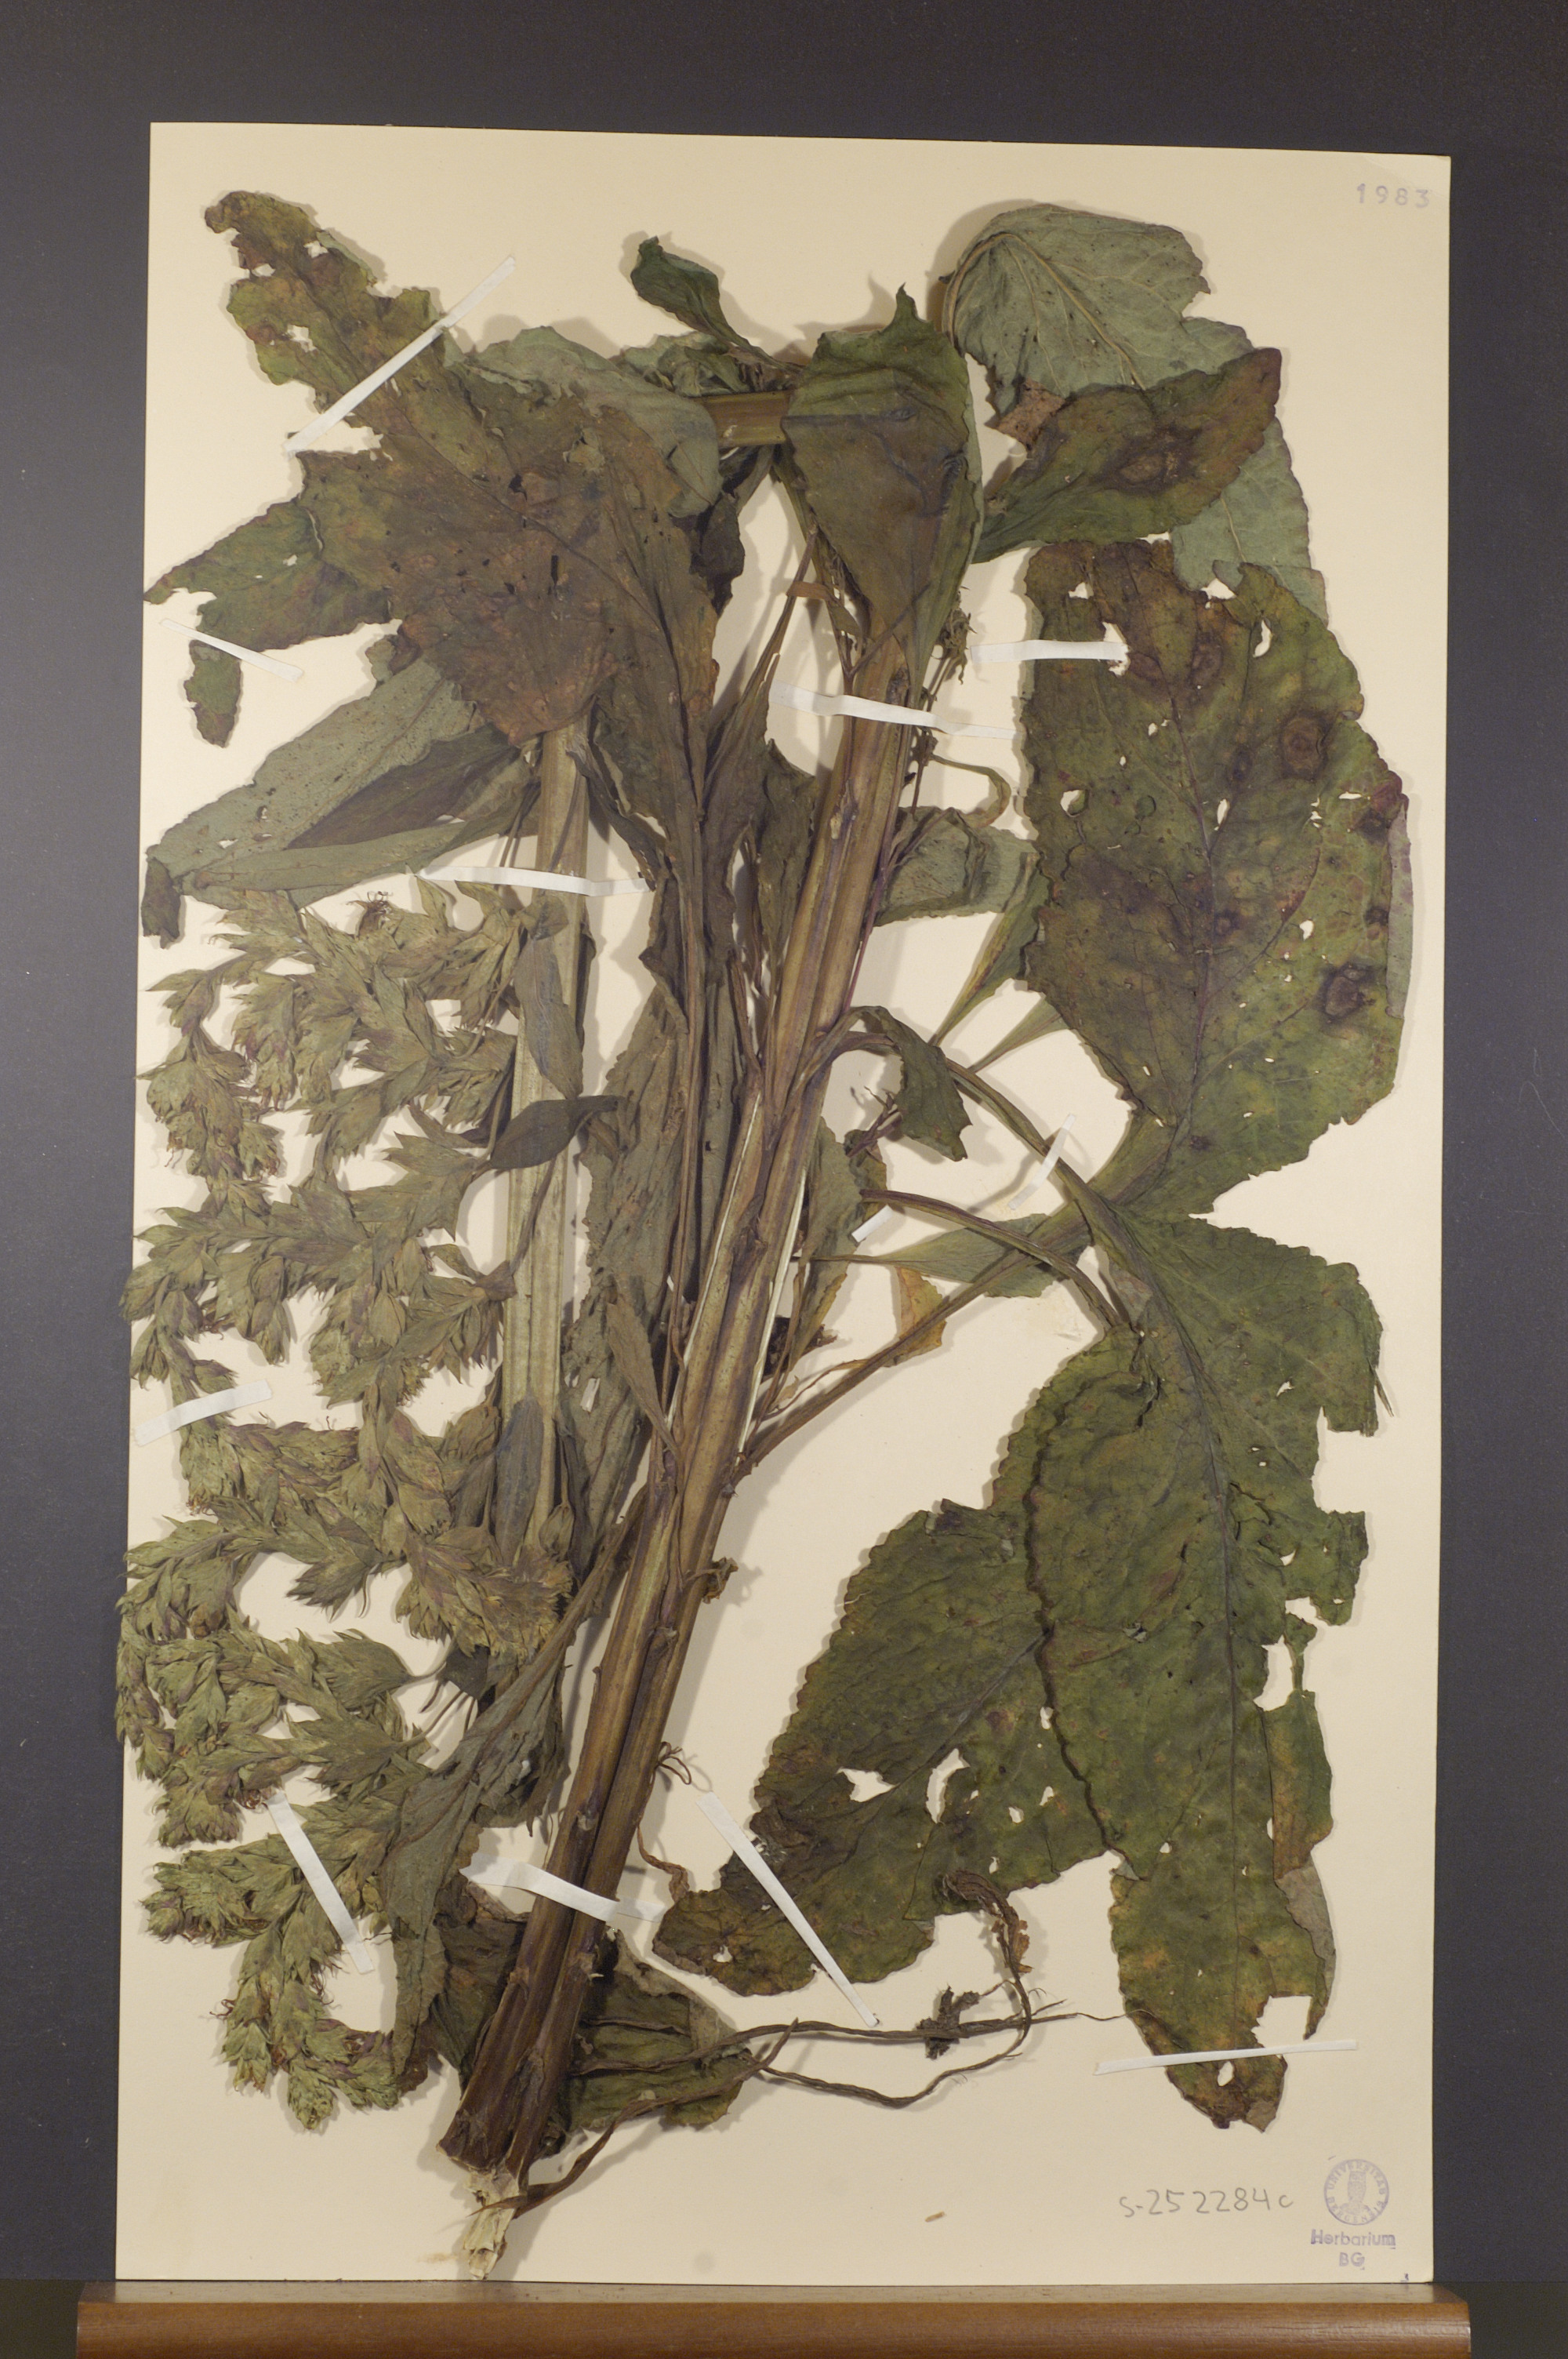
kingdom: Plantae
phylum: Tracheophyta
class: Magnoliopsida
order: Lamiales
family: Plantaginaceae
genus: Digitalis
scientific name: Digitalis purpurea
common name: Foxglove
